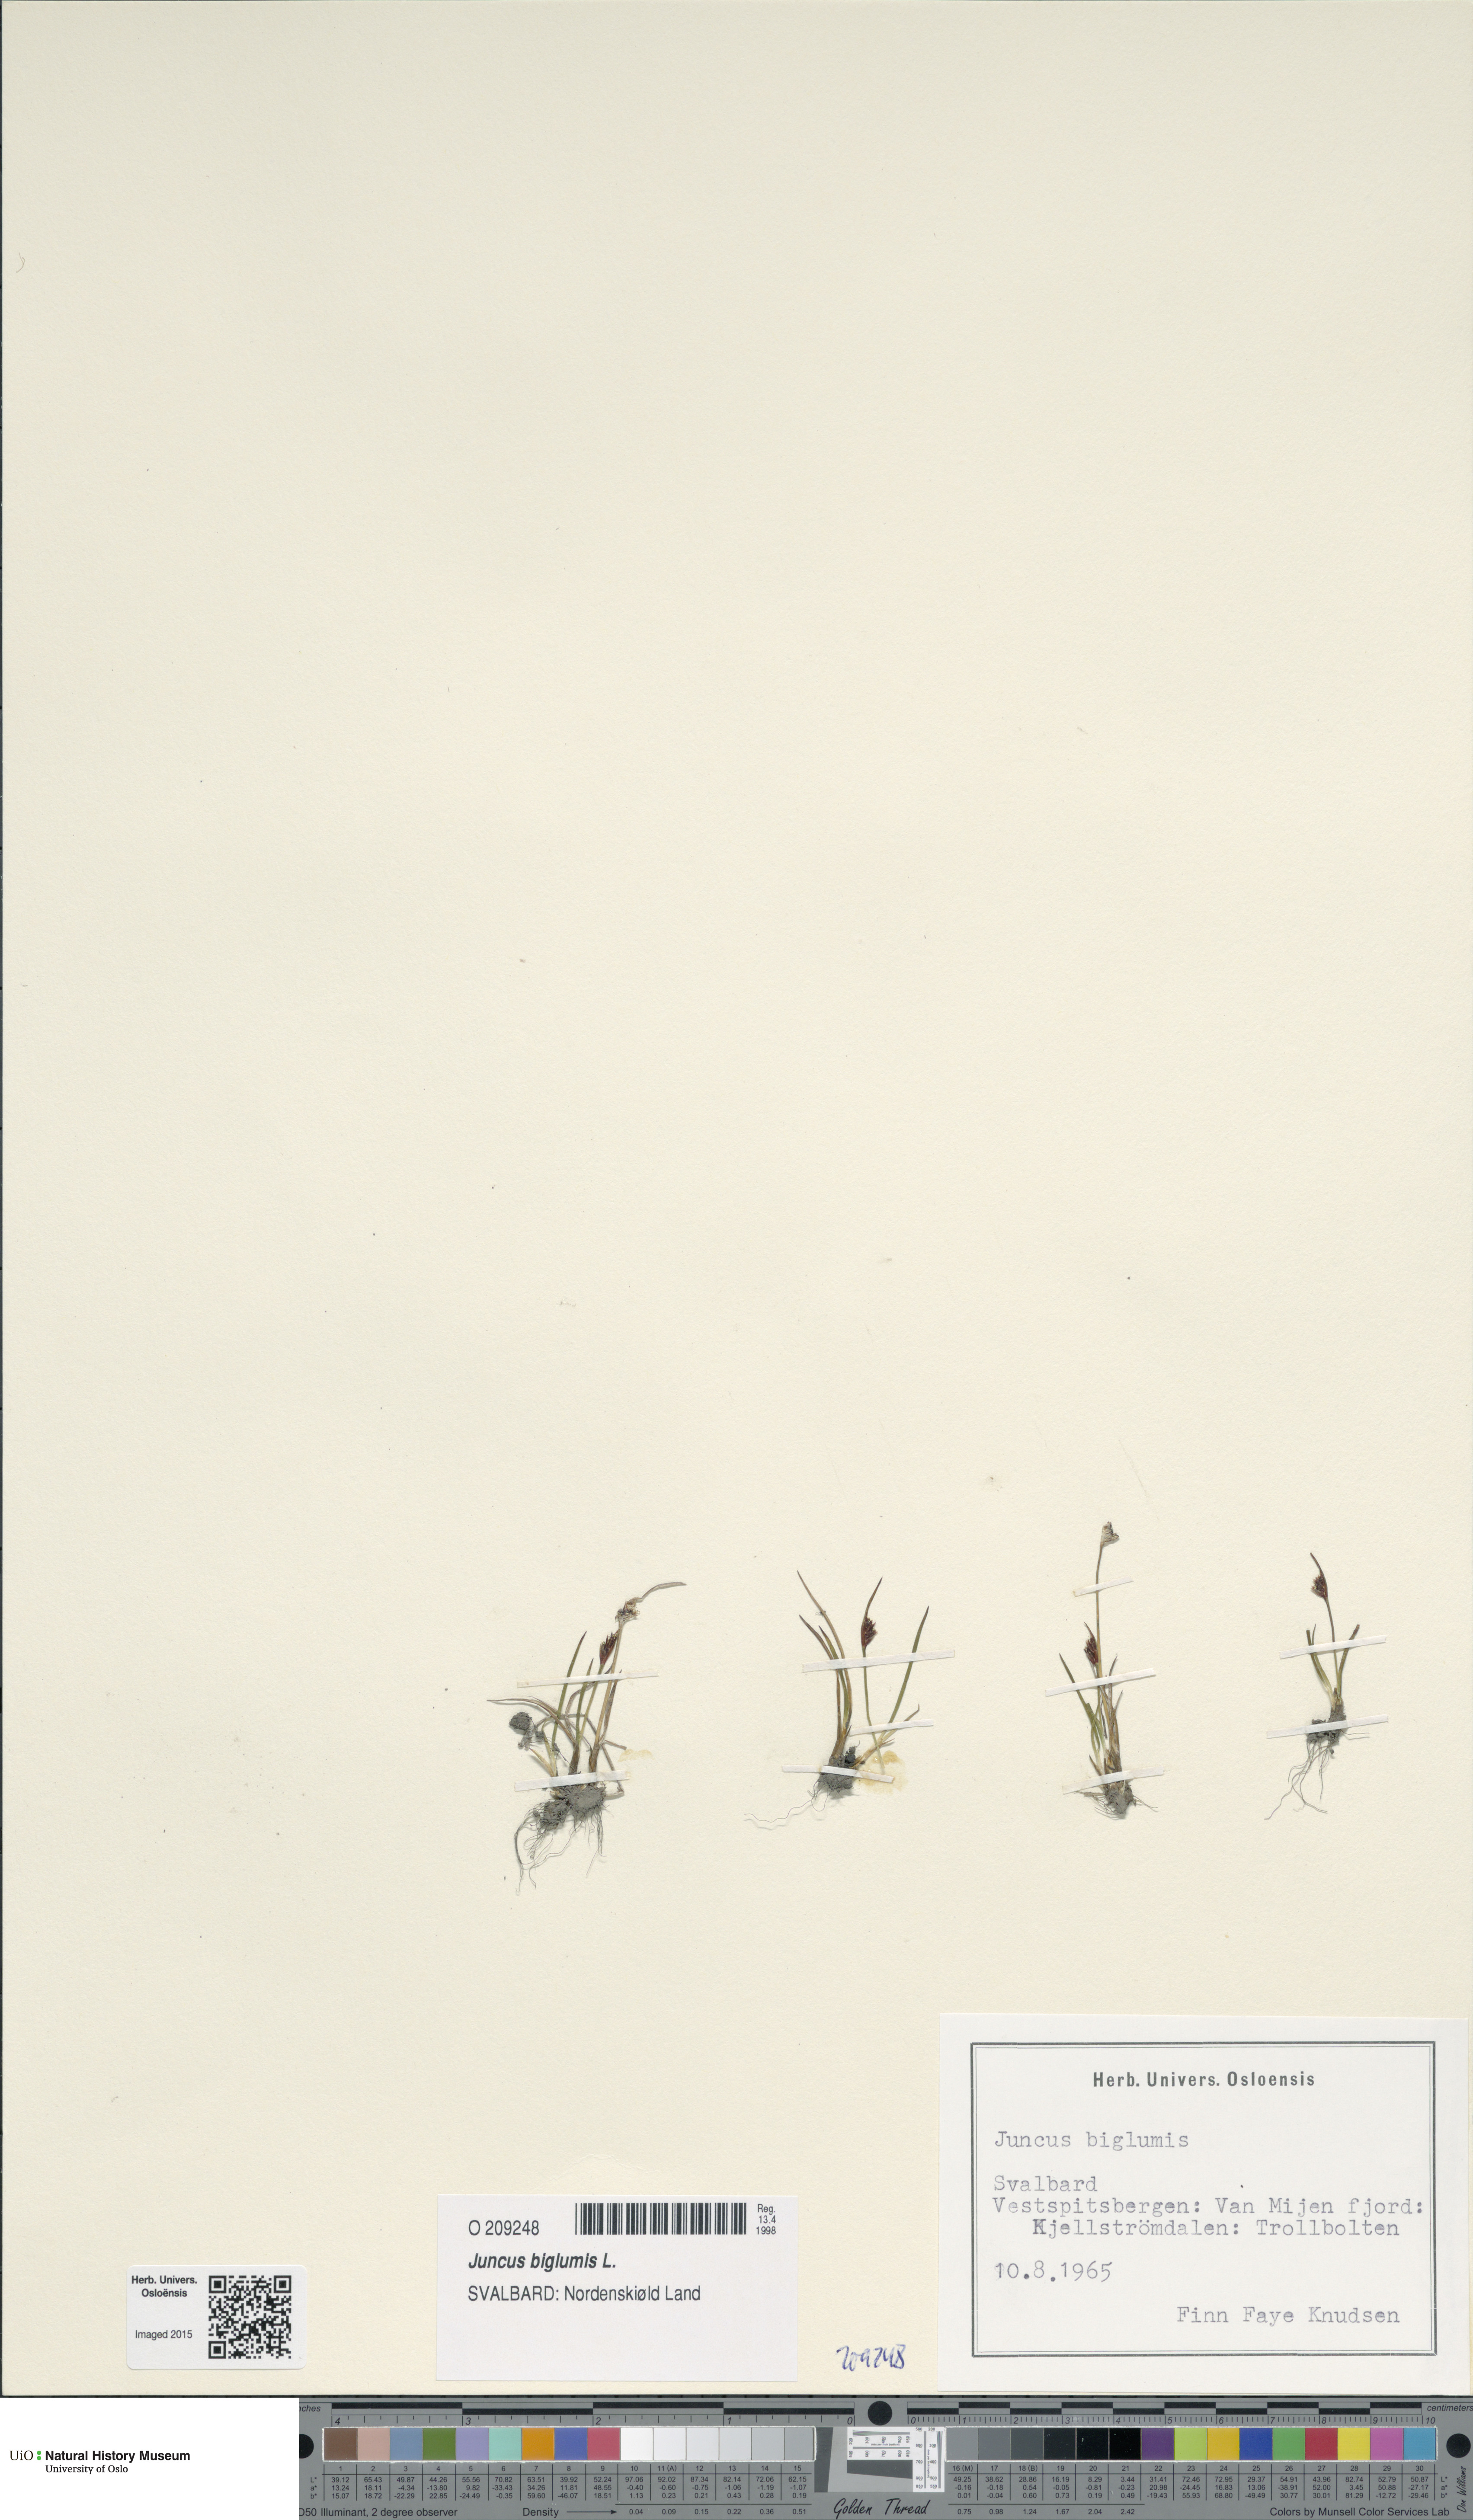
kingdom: Plantae
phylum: Tracheophyta
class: Liliopsida
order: Poales
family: Juncaceae
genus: Juncus
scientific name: Juncus biglumis
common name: Two-flowered rush
